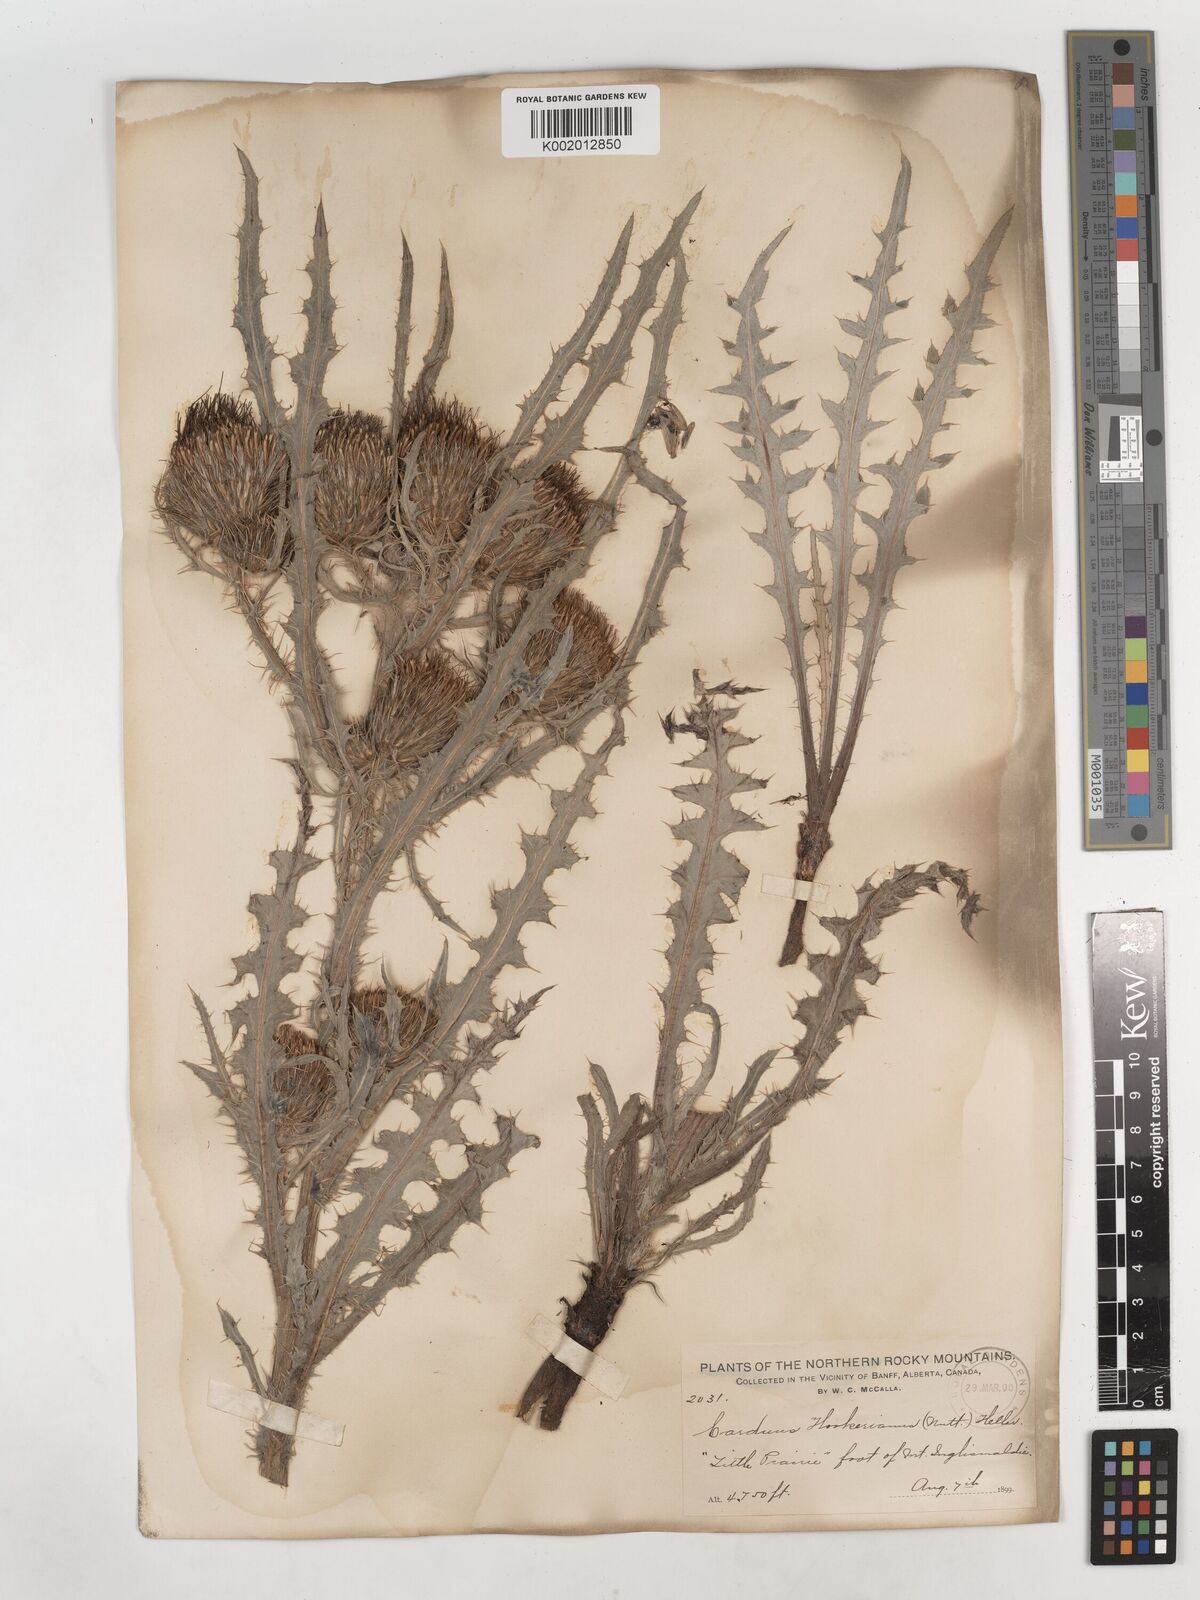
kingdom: Plantae
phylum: Tracheophyta
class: Magnoliopsida
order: Asterales
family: Asteraceae
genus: Cirsium
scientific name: Cirsium hookerianum
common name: Hooker's thistle
